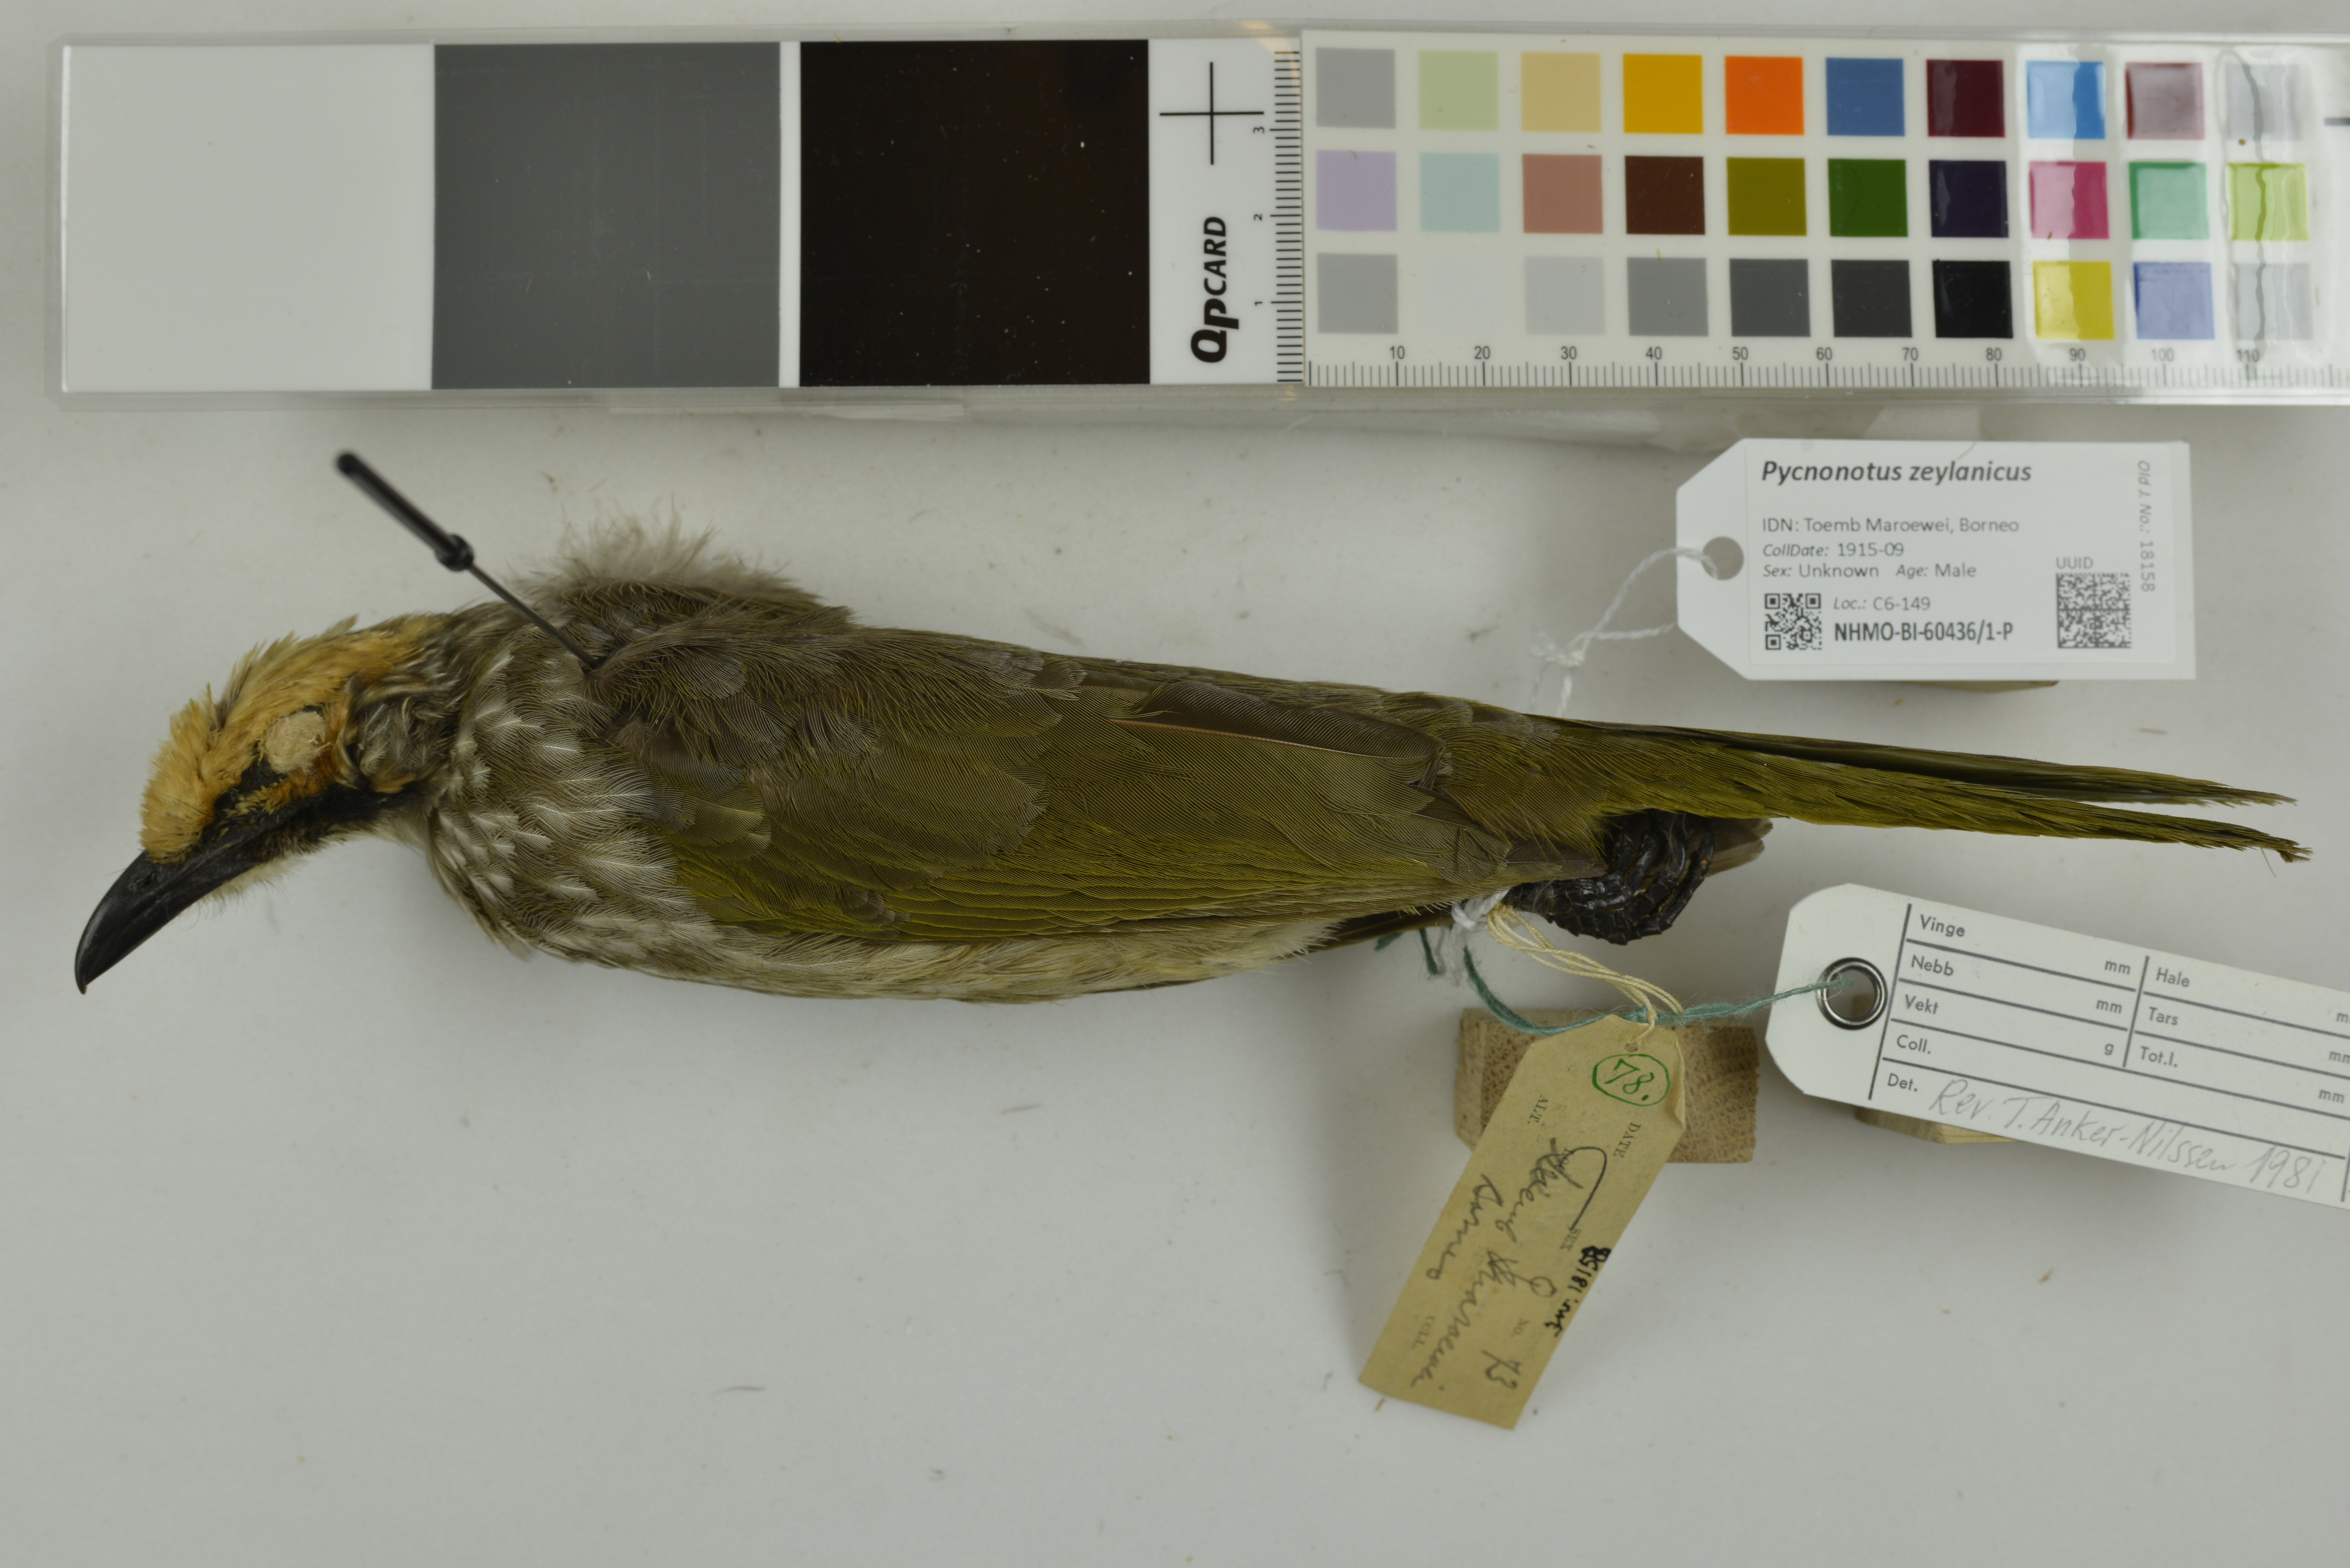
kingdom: Animalia
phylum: Chordata
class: Aves
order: Passeriformes
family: Pycnonotidae
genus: Pycnonotus
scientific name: Pycnonotus zeylanicus
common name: Straw-headed bulbul
